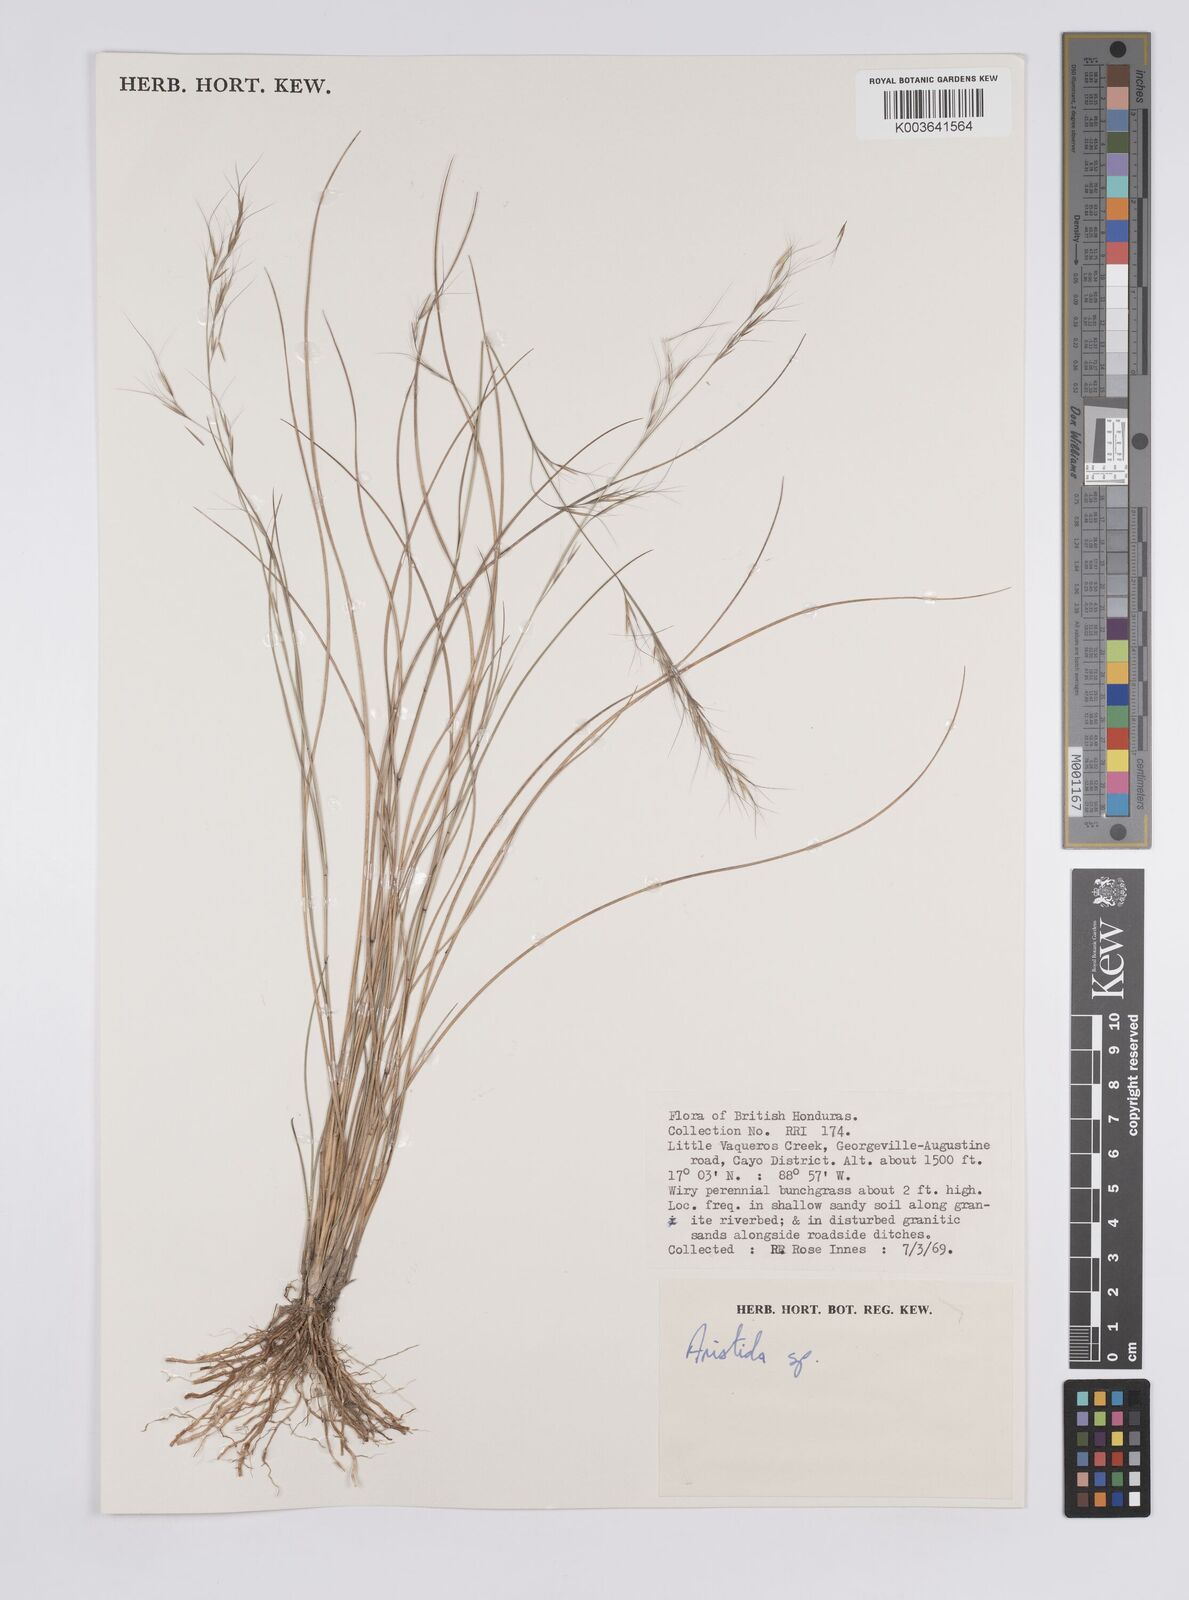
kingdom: Plantae
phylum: Tracheophyta
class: Liliopsida
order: Poales
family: Poaceae
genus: Aristida
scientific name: Aristida
